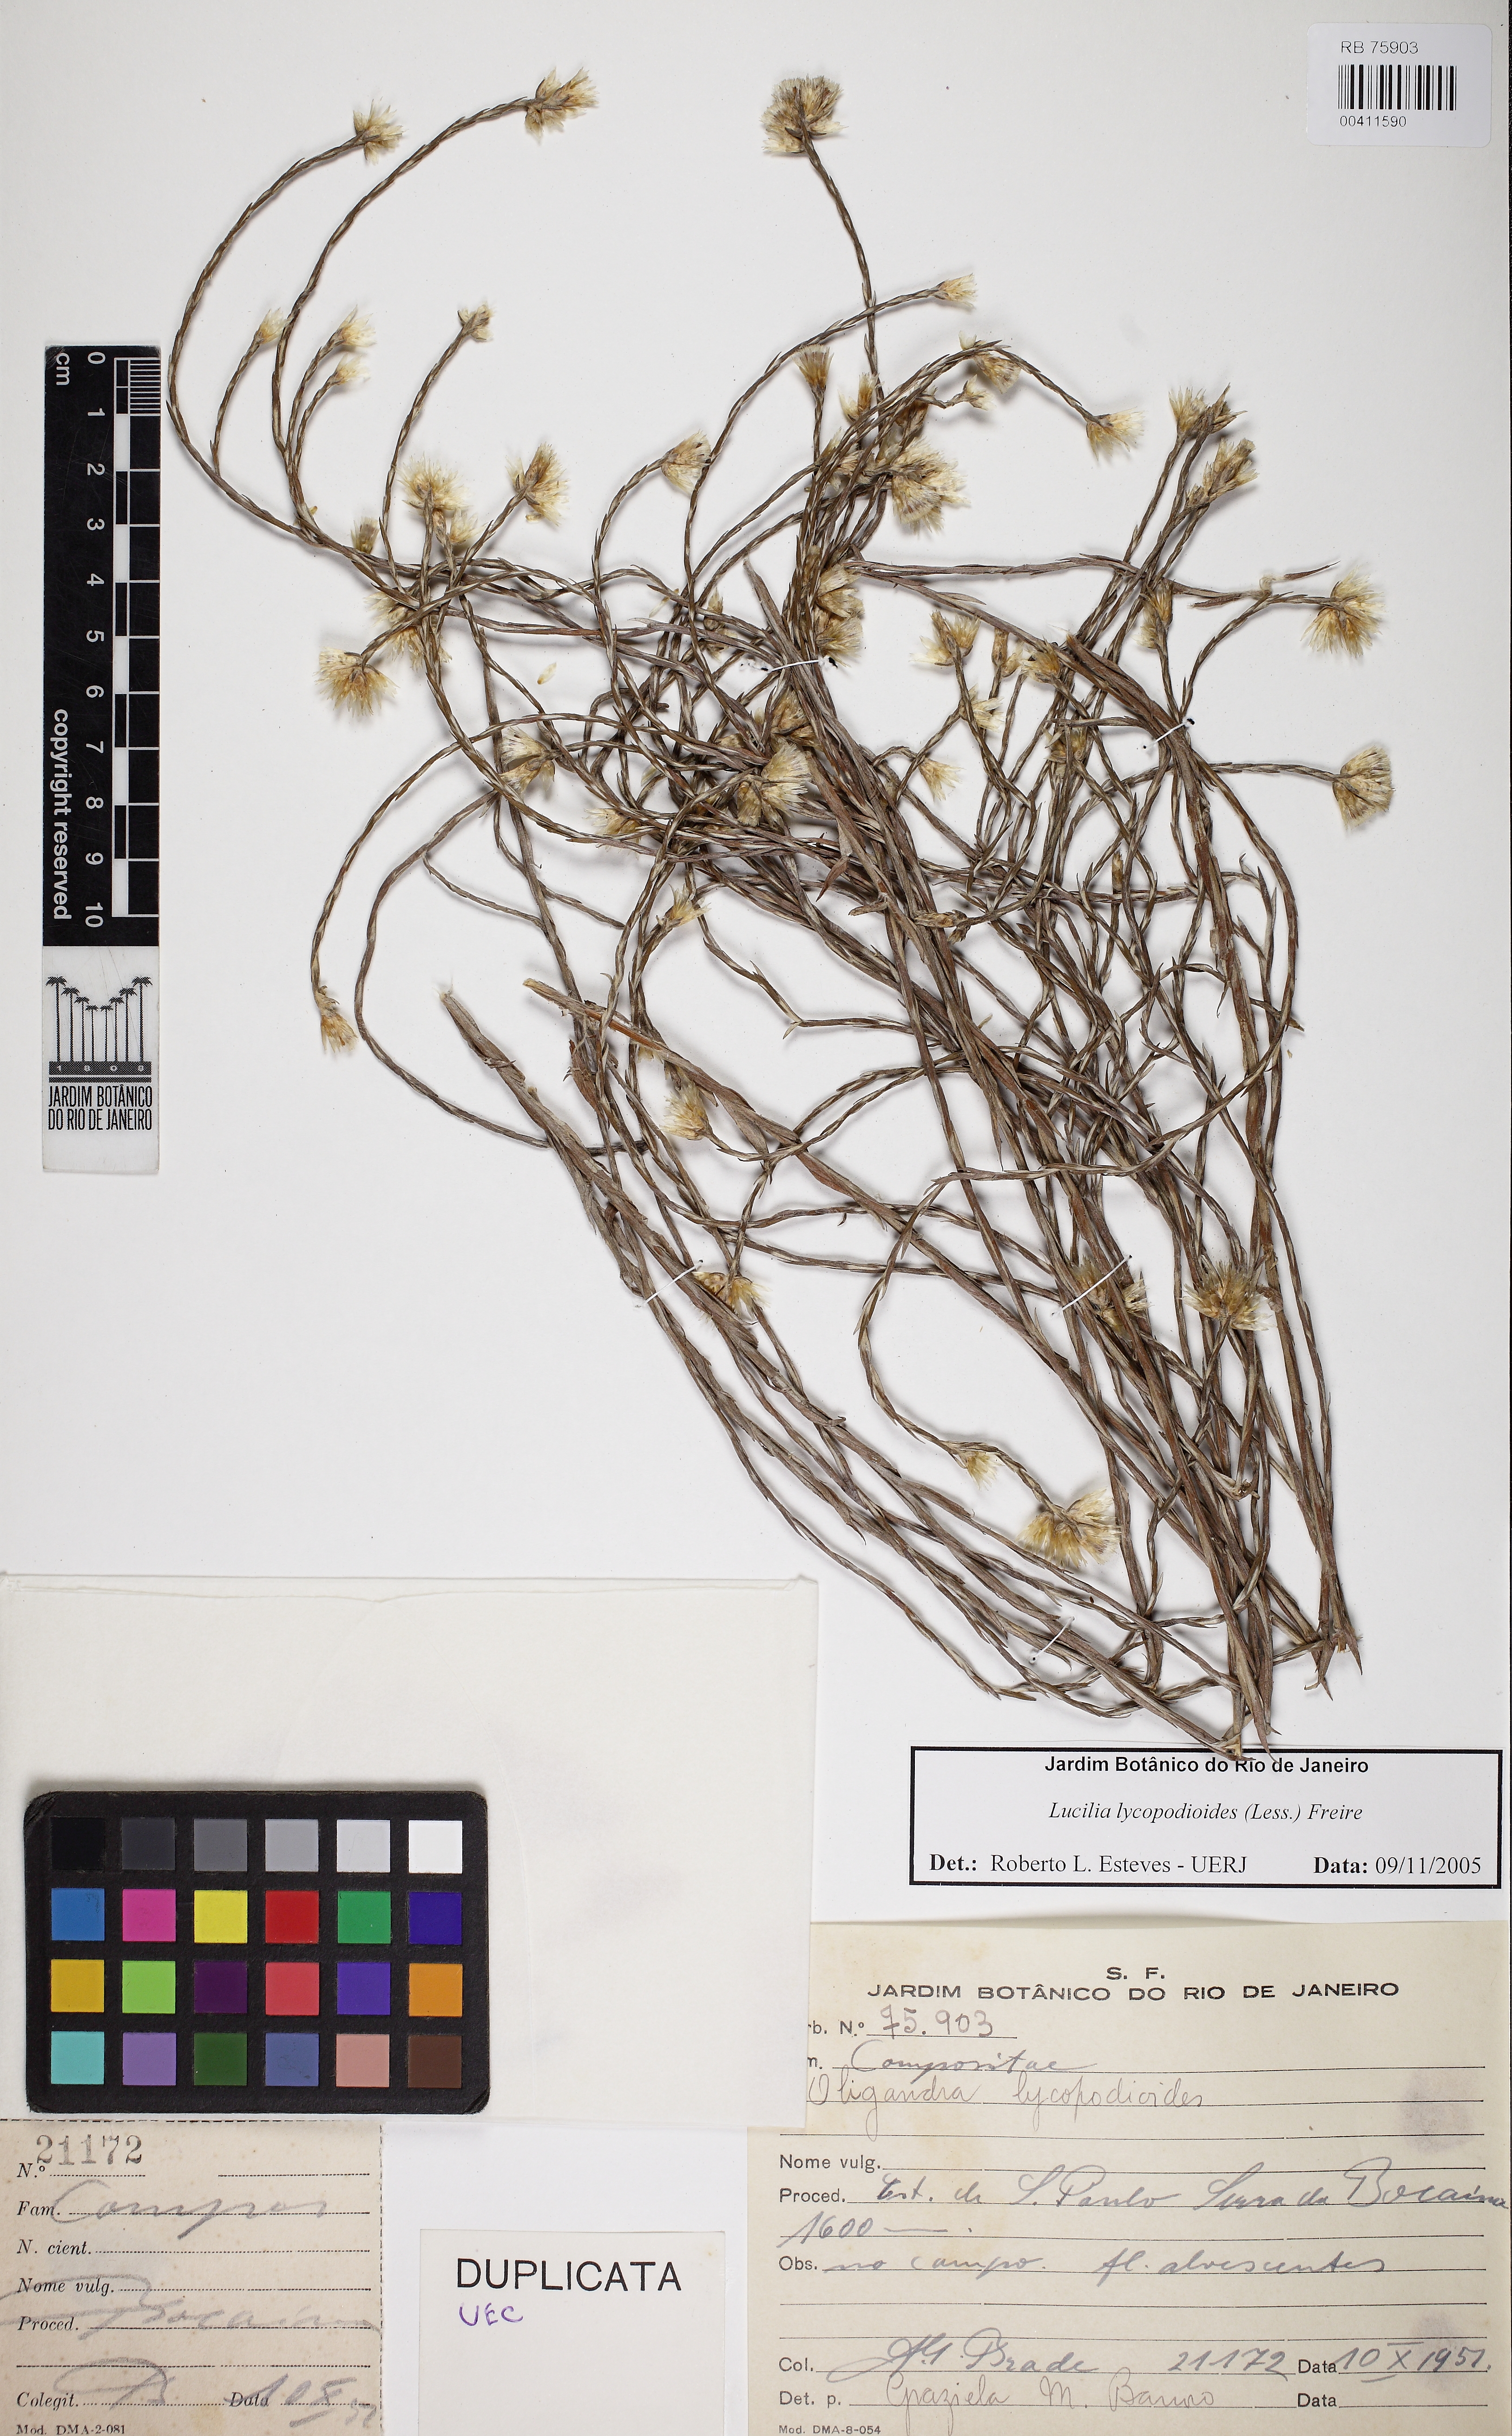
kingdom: Plantae
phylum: Tracheophyta
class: Magnoliopsida
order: Asterales
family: Asteraceae
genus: Lucilia
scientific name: Lucilia lycopodioides
